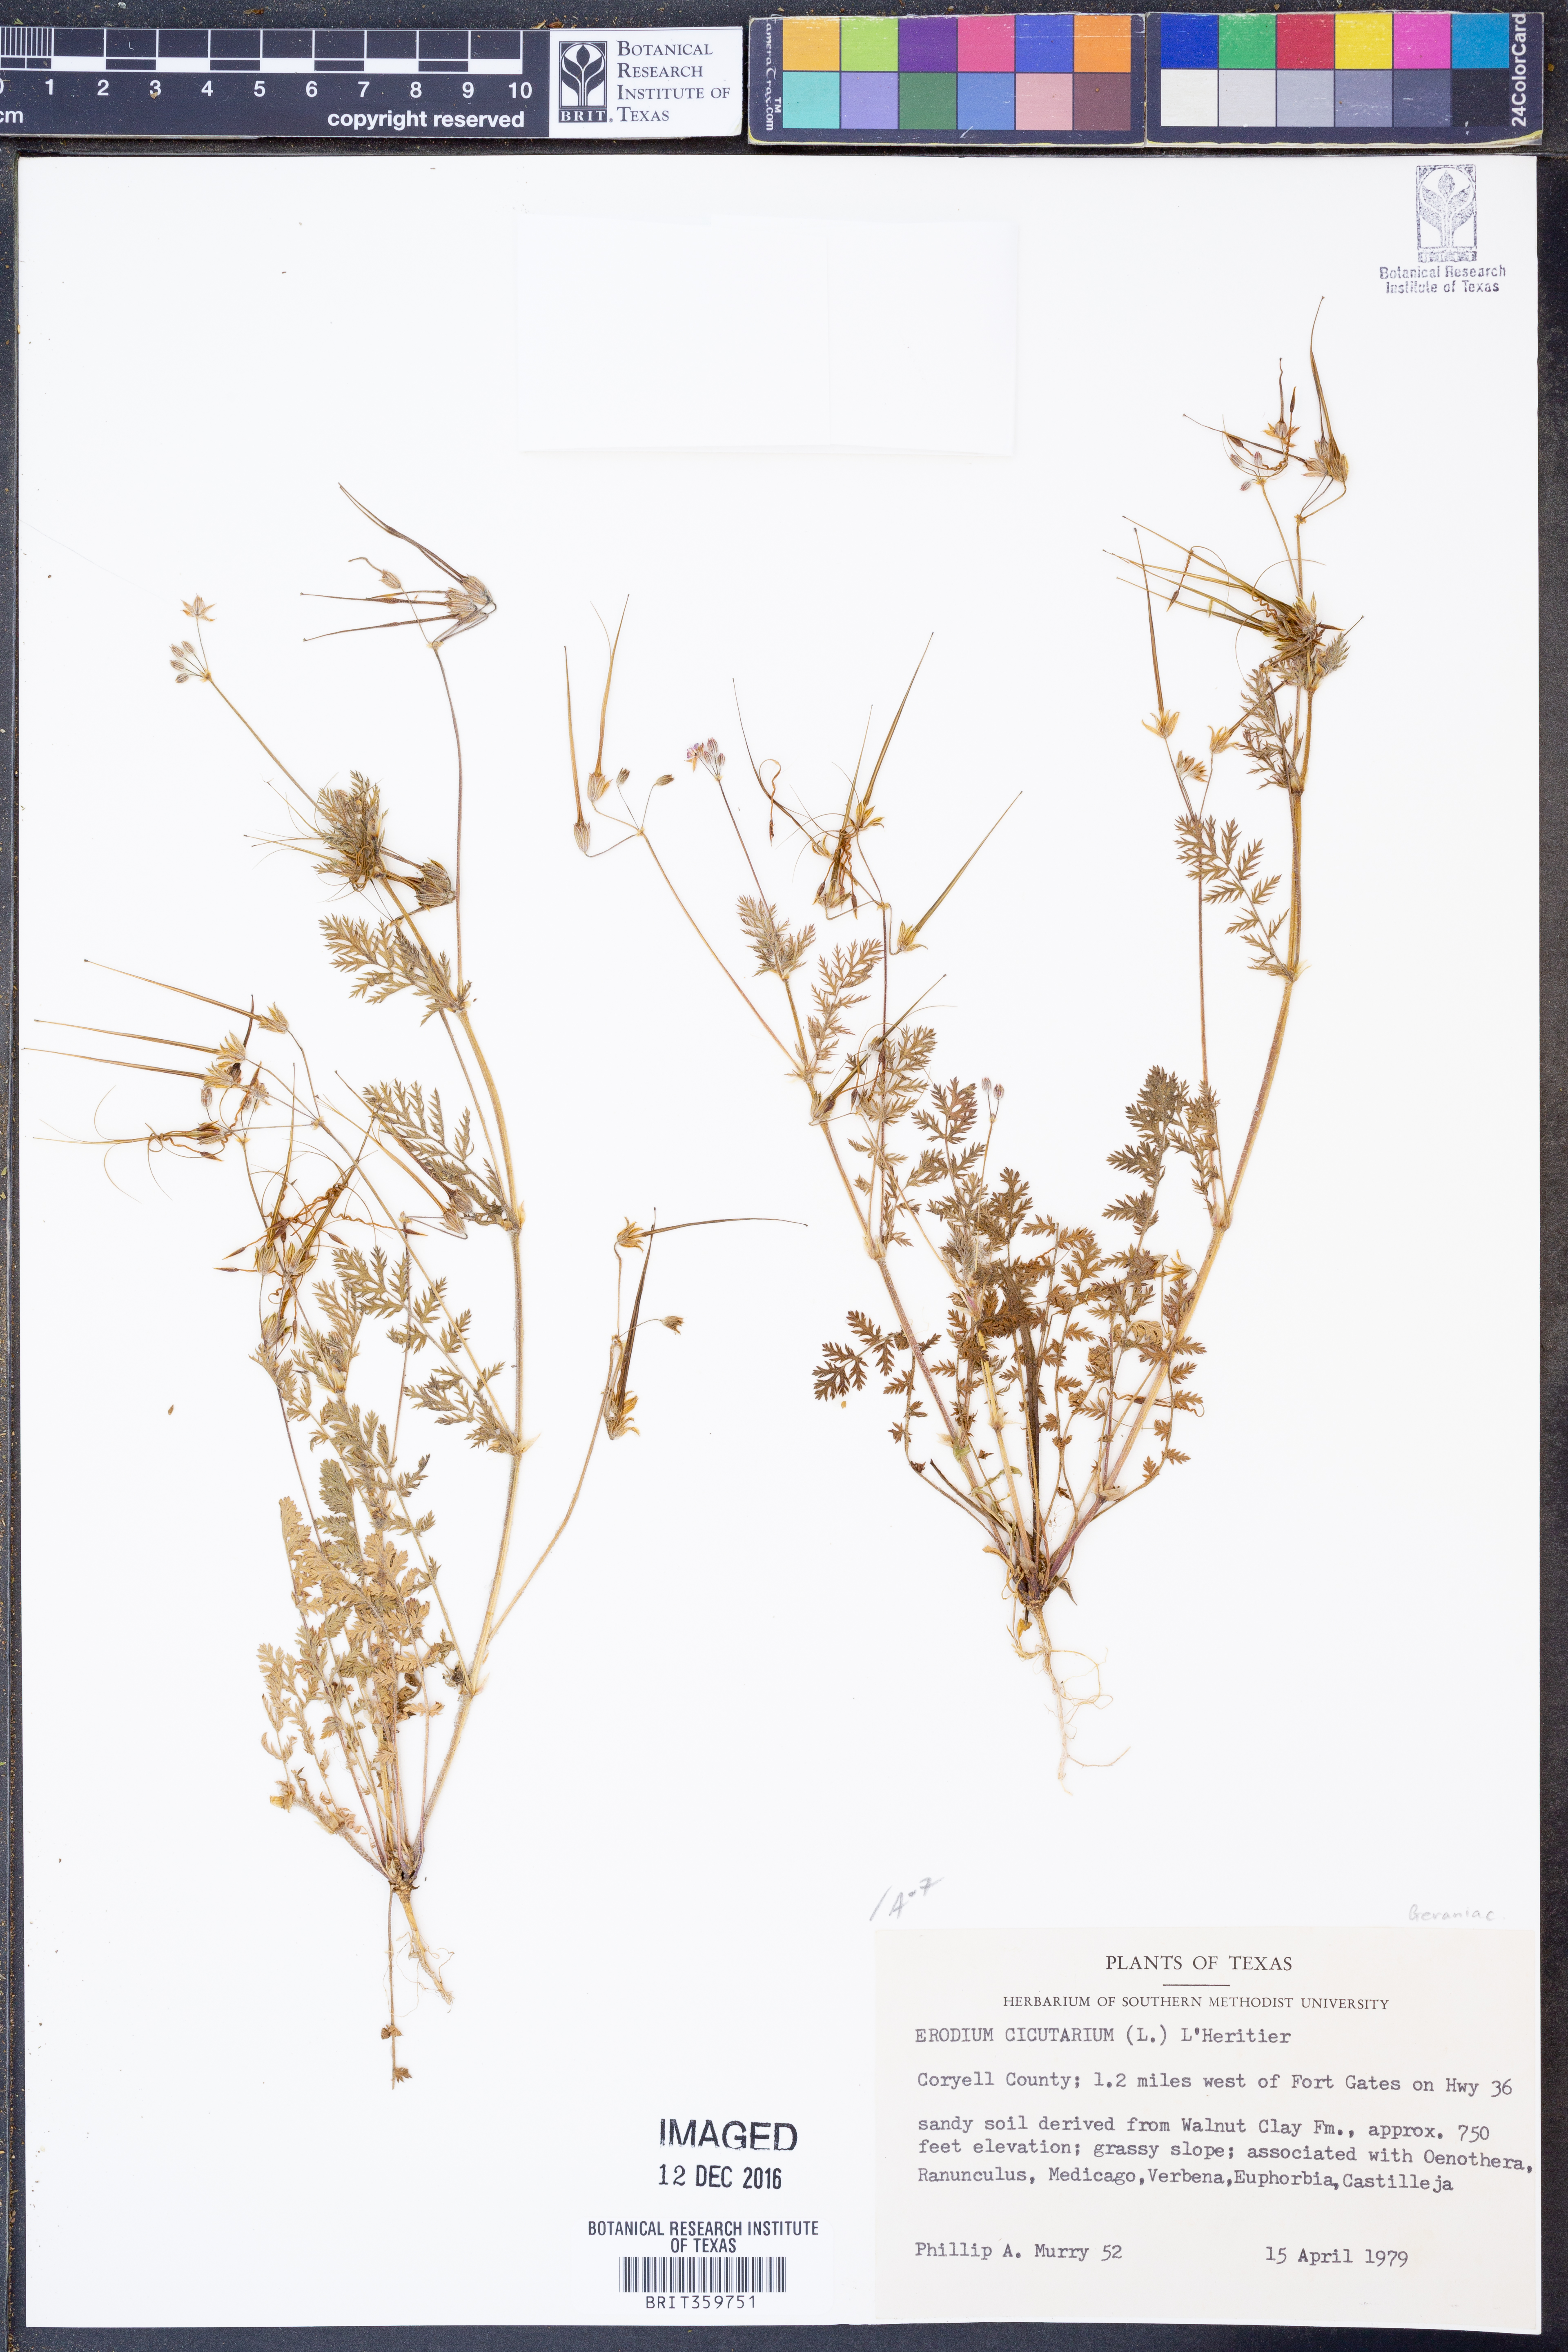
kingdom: Plantae
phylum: Tracheophyta
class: Magnoliopsida
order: Geraniales
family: Geraniaceae
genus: Erodium
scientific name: Erodium cicutarium
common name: Common stork's-bill
